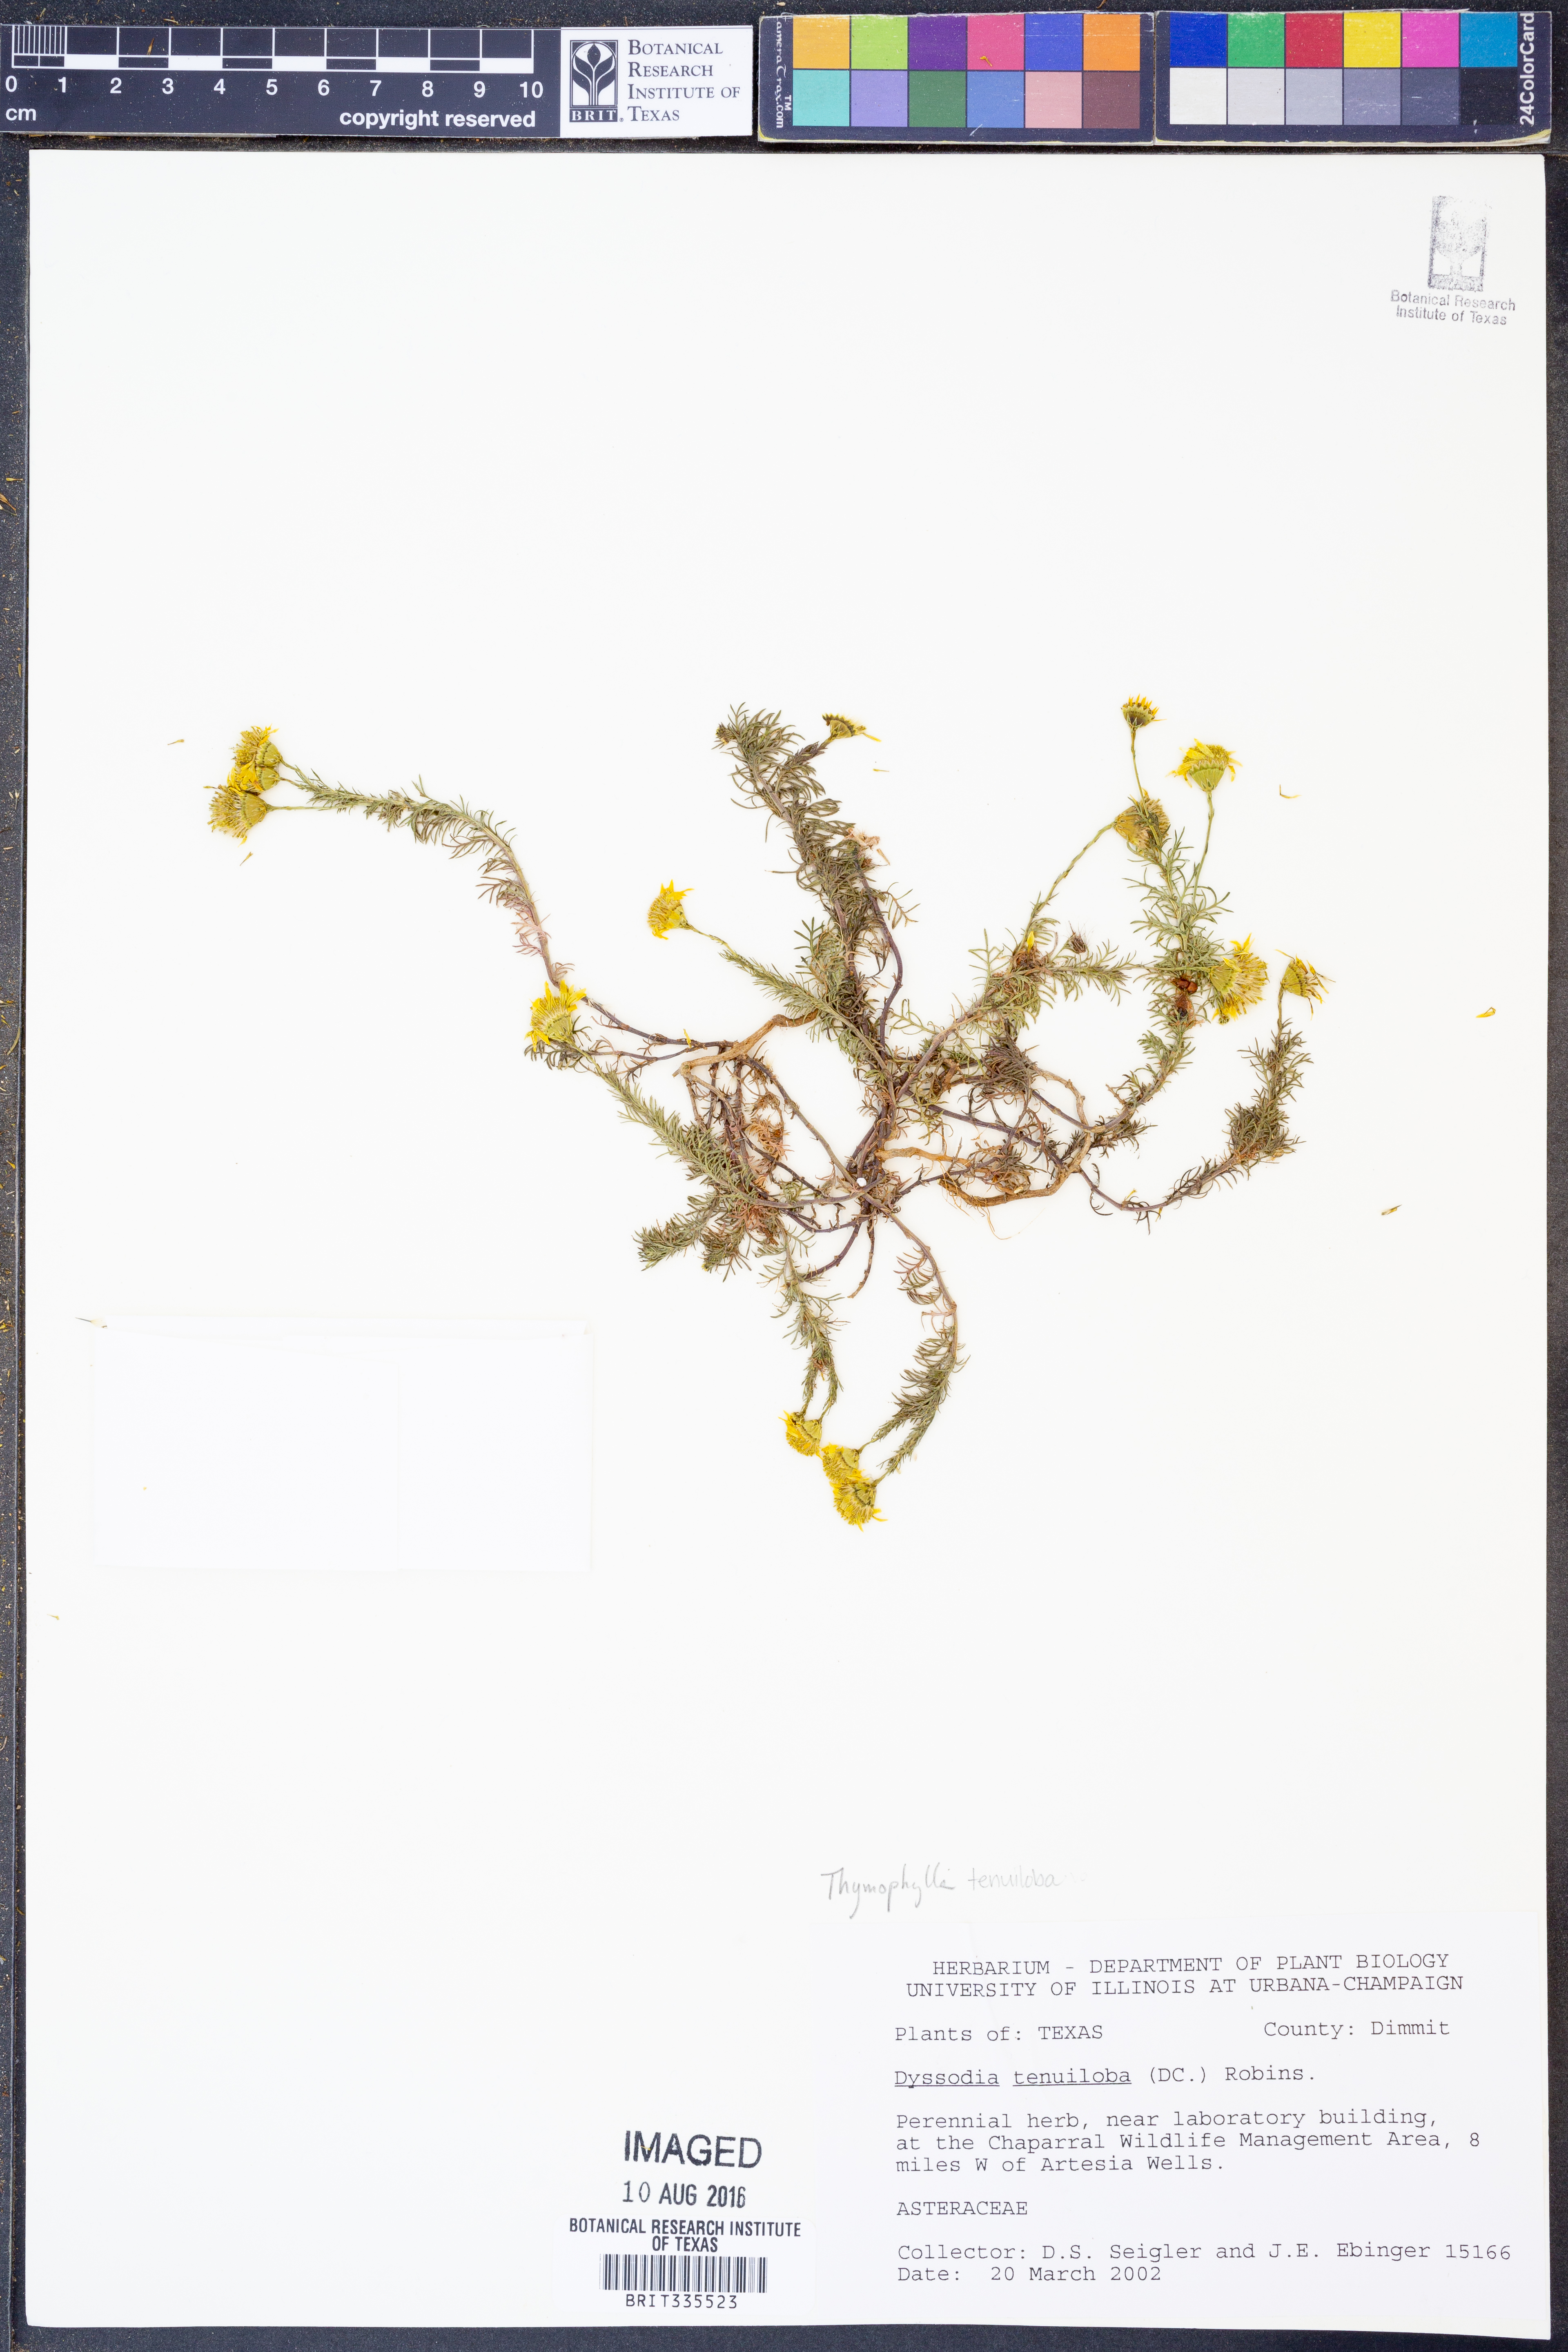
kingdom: Plantae
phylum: Tracheophyta
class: Magnoliopsida
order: Asterales
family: Asteraceae
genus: Thymophylla
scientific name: Thymophylla tenuiloba
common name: Dahlberg's daisy
